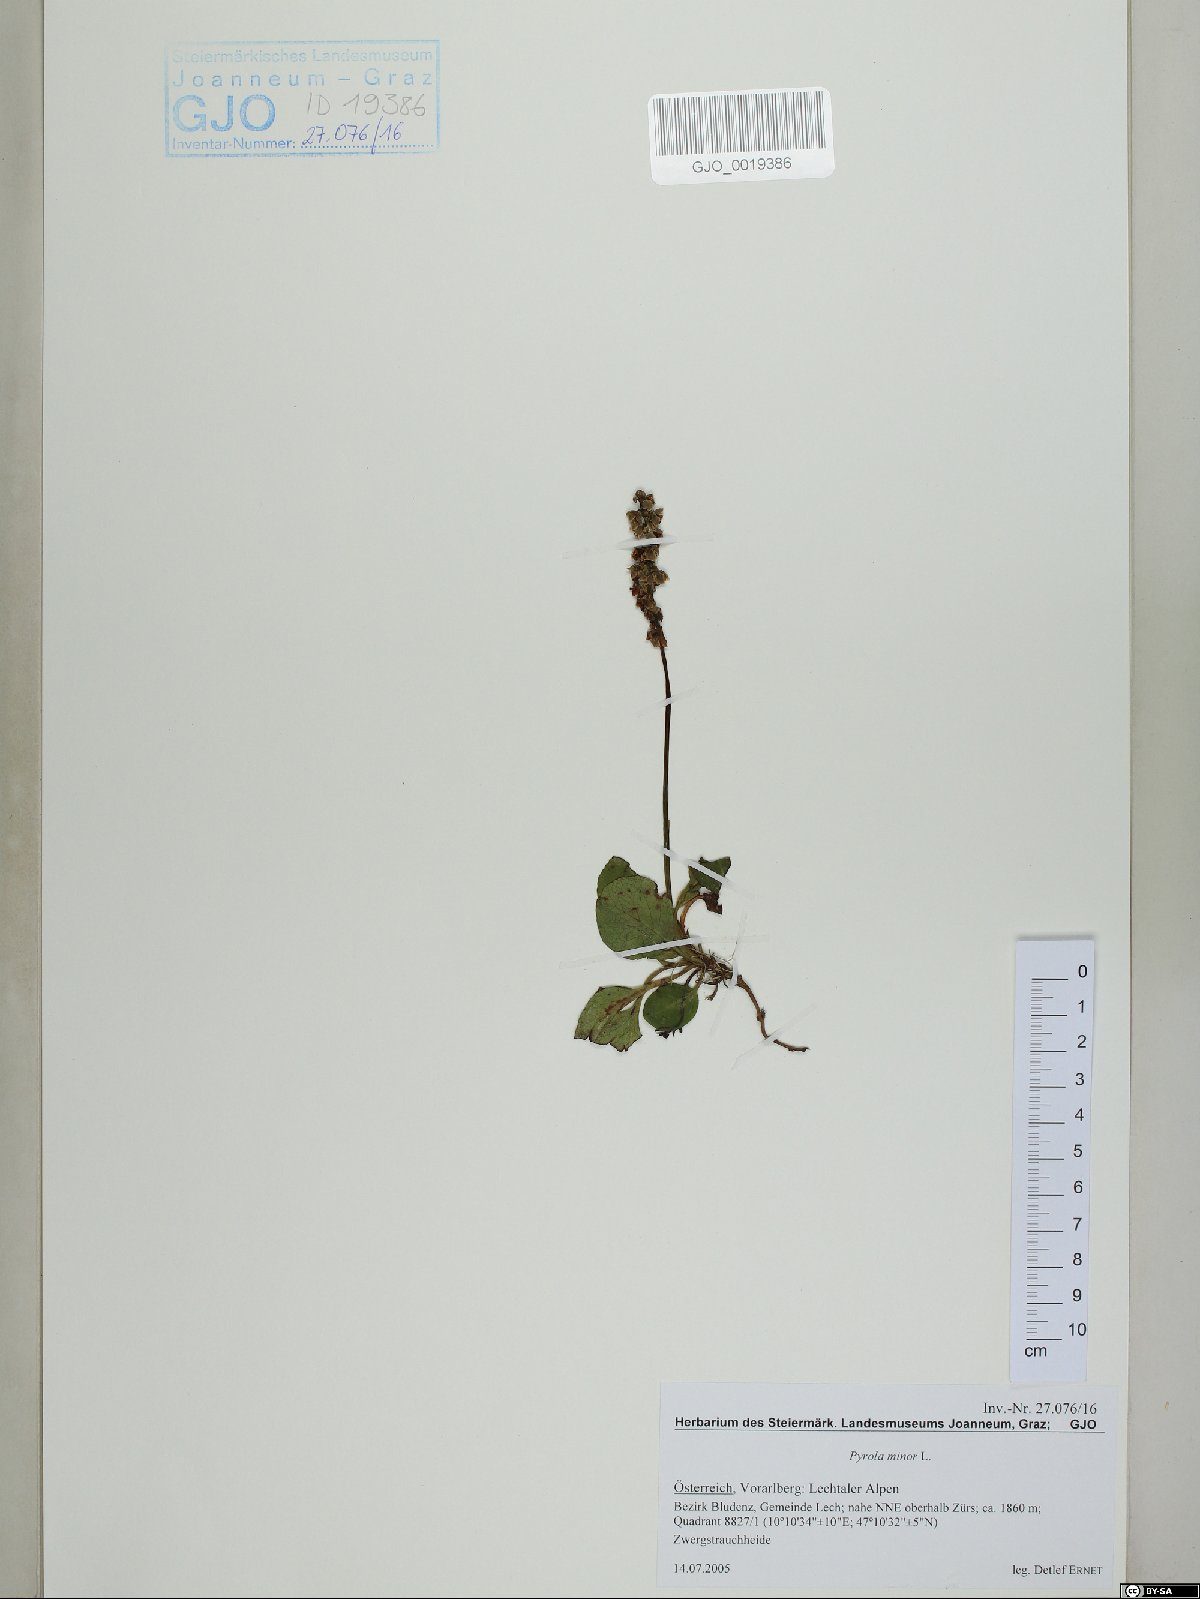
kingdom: Plantae
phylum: Tracheophyta
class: Magnoliopsida
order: Ericales
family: Ericaceae
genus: Pyrola
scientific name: Pyrola minor
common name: Common wintergreen
